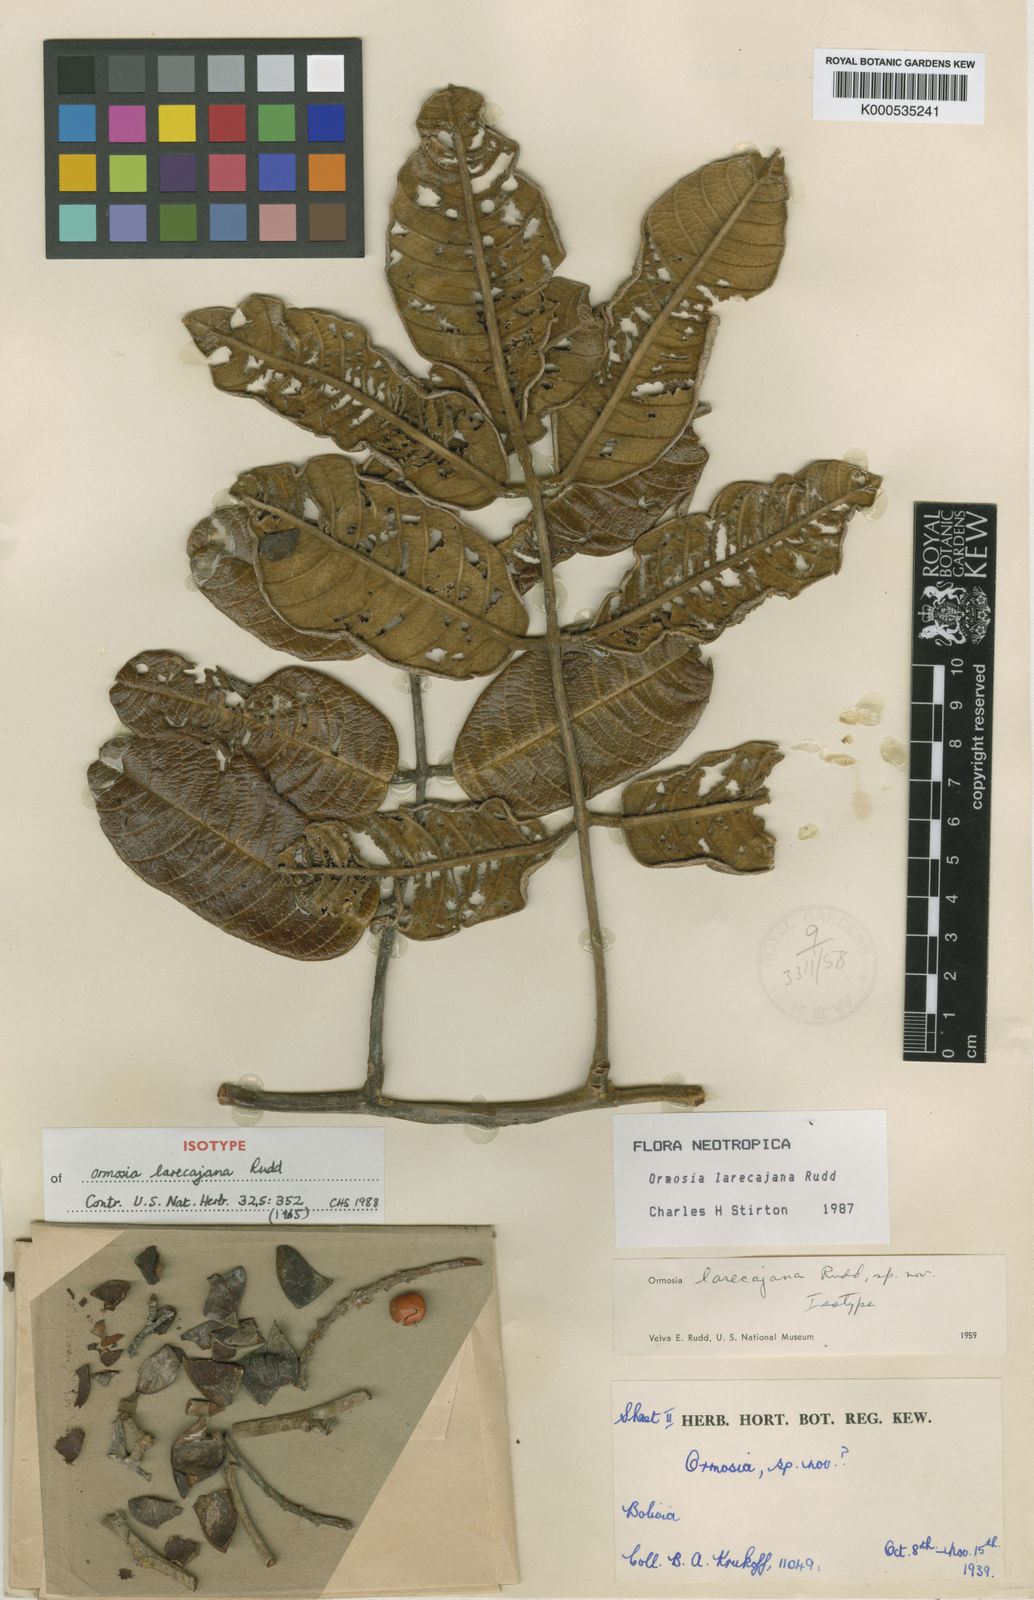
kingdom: Plantae
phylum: Tracheophyta
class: Magnoliopsida
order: Fabales
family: Fabaceae
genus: Ormosia
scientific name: Ormosia larecajana
